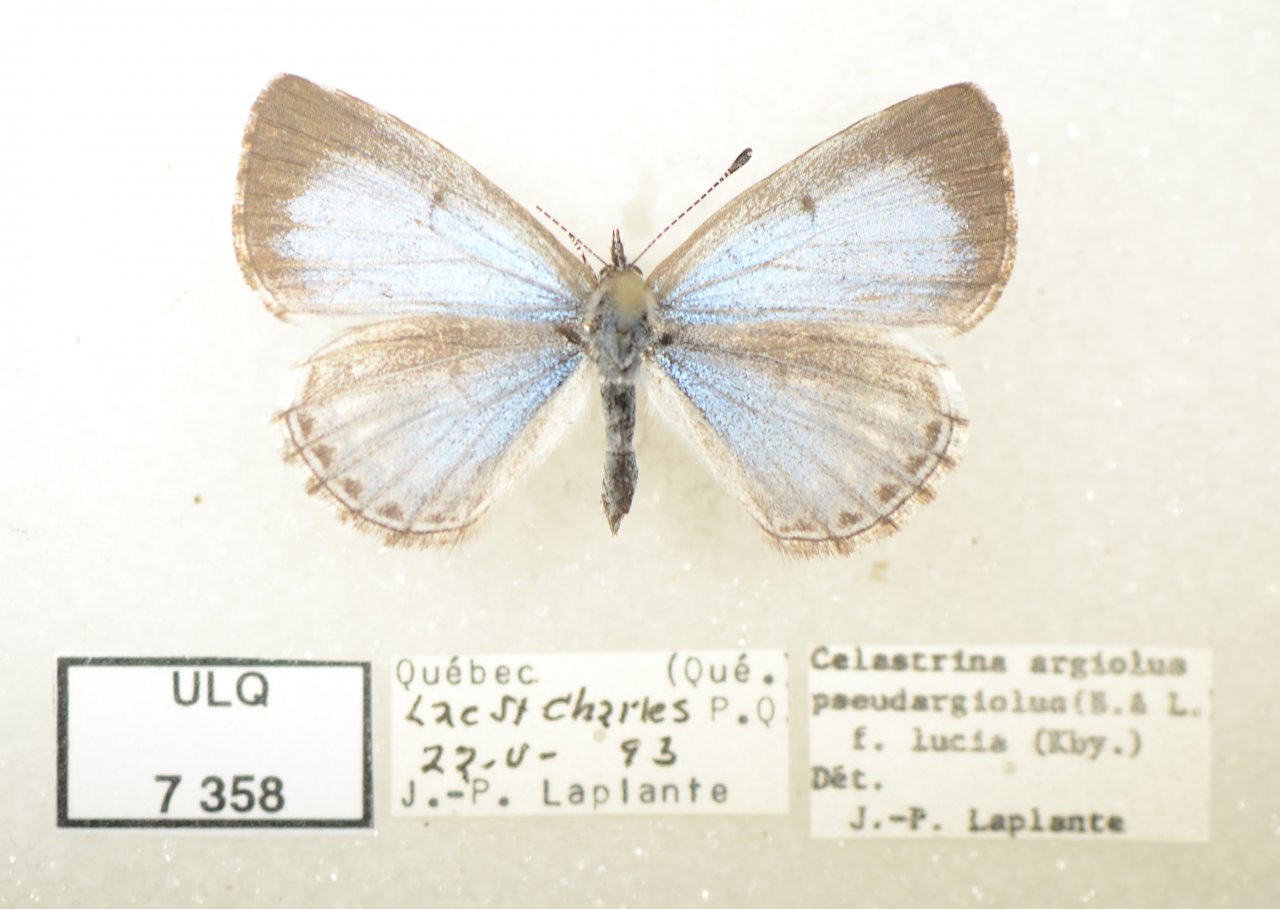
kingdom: Animalia
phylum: Arthropoda
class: Insecta
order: Lepidoptera
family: Lycaenidae
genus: Celastrina
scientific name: Celastrina lucia
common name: Northern Spring Azure
